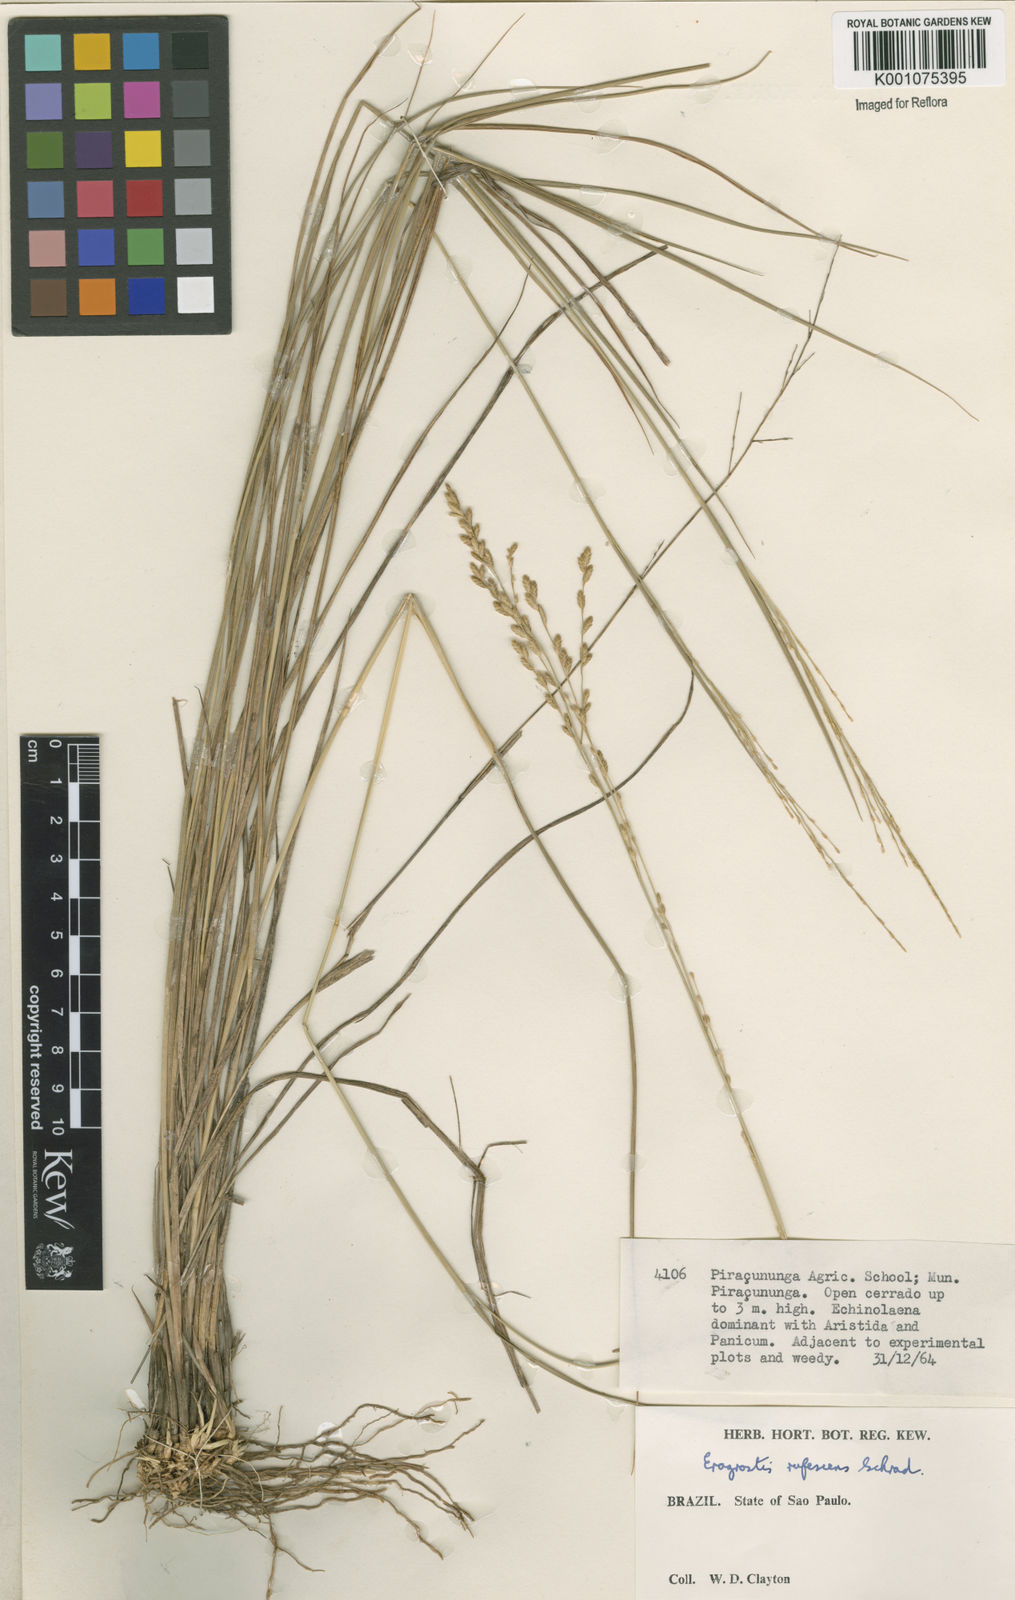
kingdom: Plantae
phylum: Tracheophyta
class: Liliopsida
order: Poales
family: Poaceae
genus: Eragrostis
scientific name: Eragrostis solida
